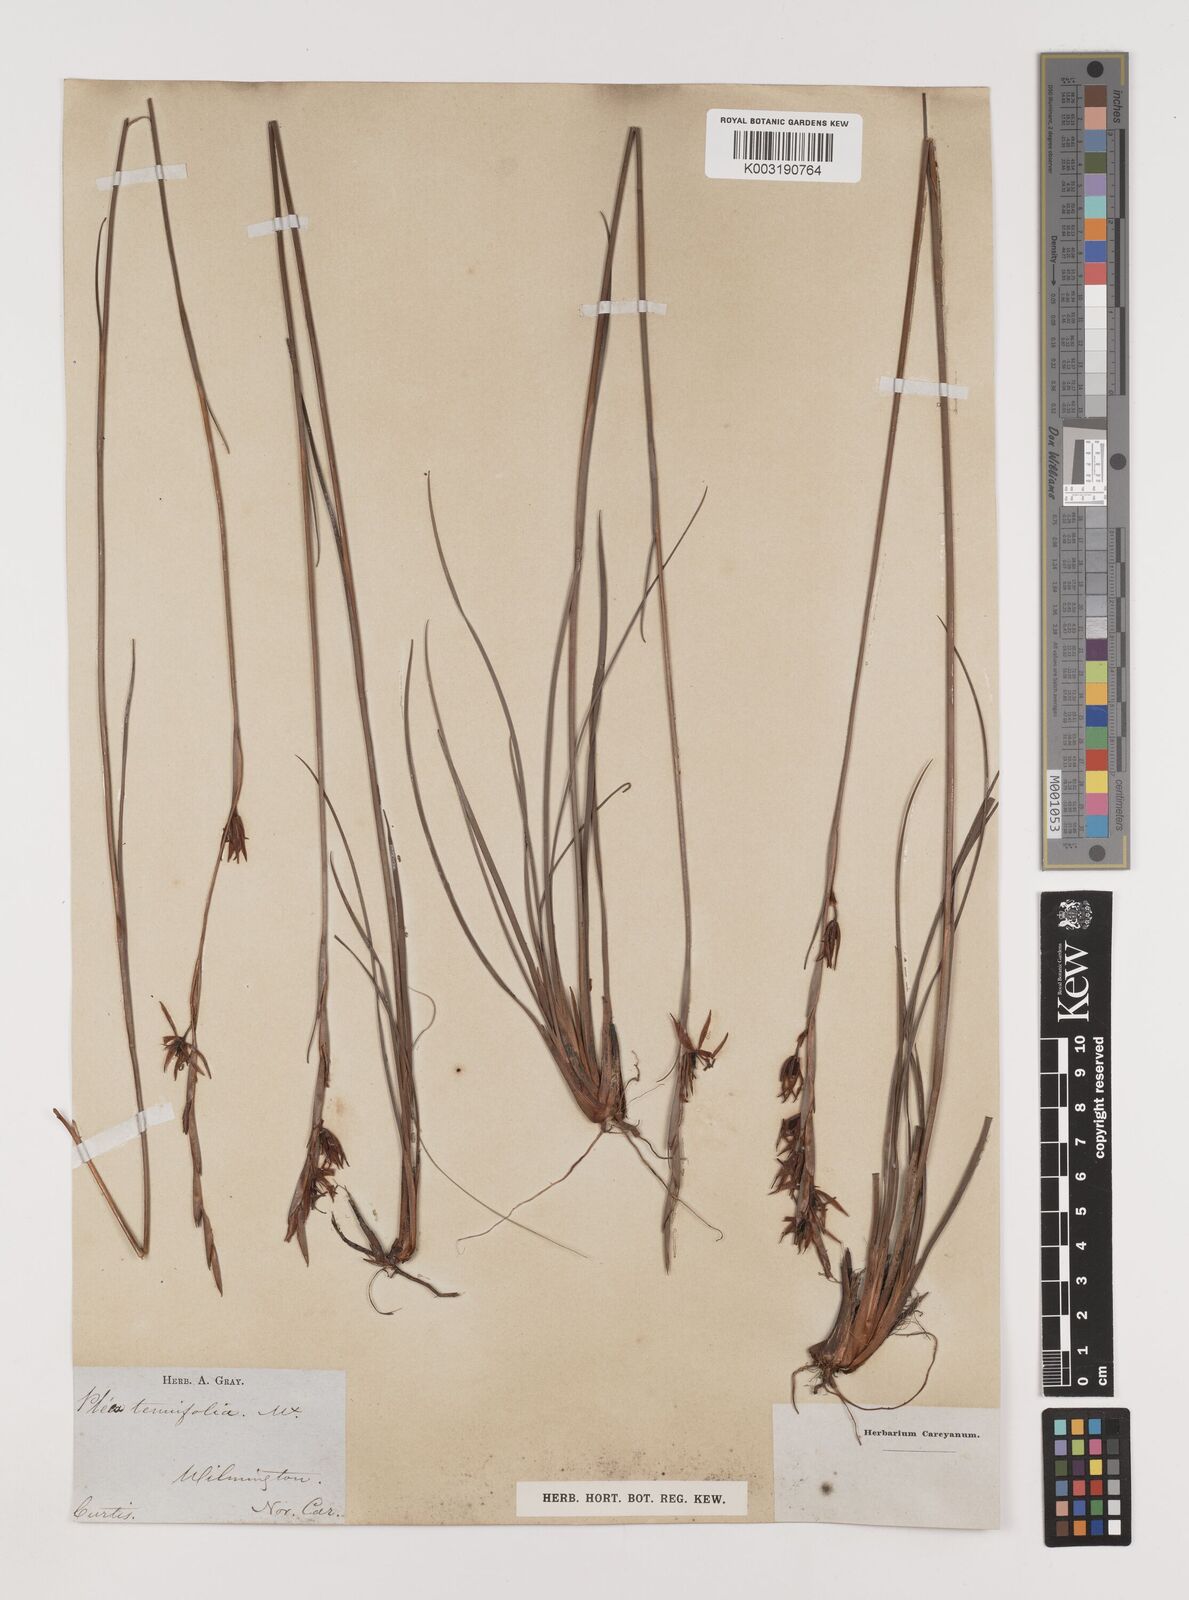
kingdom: Plantae
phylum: Tracheophyta
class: Liliopsida
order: Alismatales
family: Tofieldiaceae
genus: Pleea
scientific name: Pleea tenuifolia
